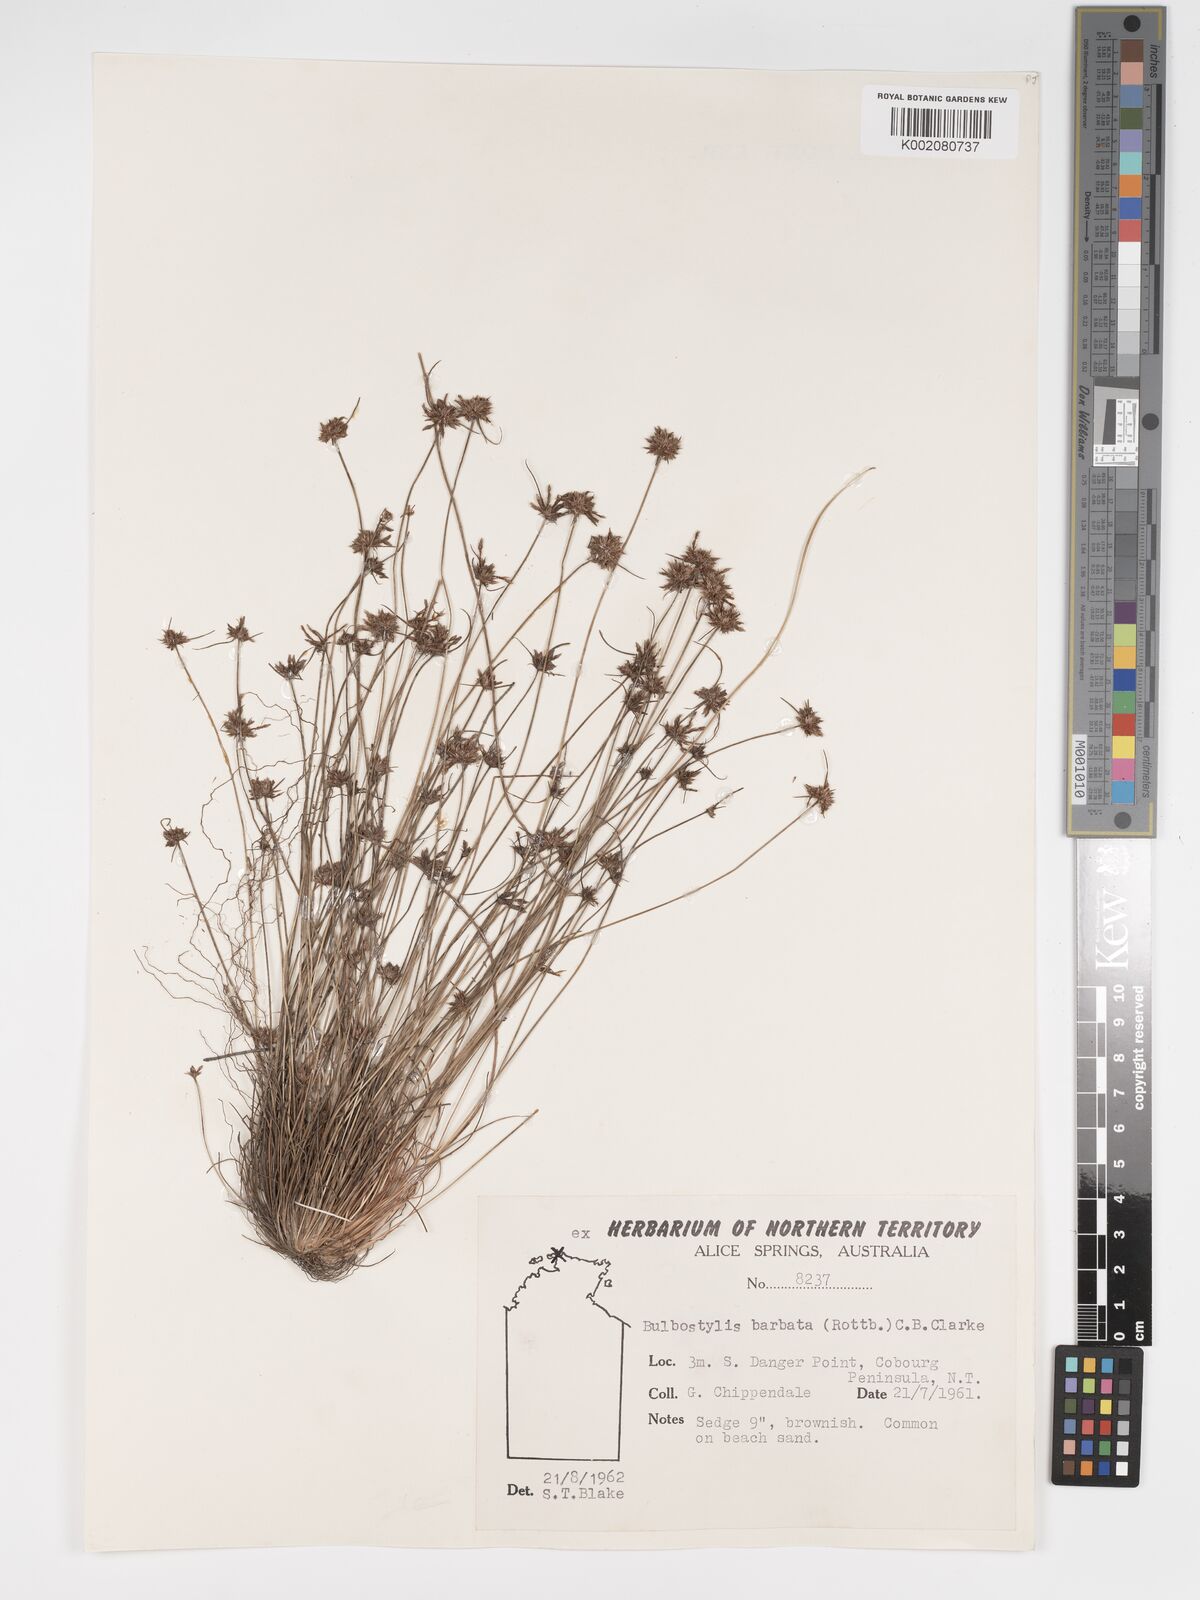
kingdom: Plantae
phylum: Tracheophyta
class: Liliopsida
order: Poales
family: Cyperaceae
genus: Bulbostylis
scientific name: Bulbostylis barbata
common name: Watergrass
